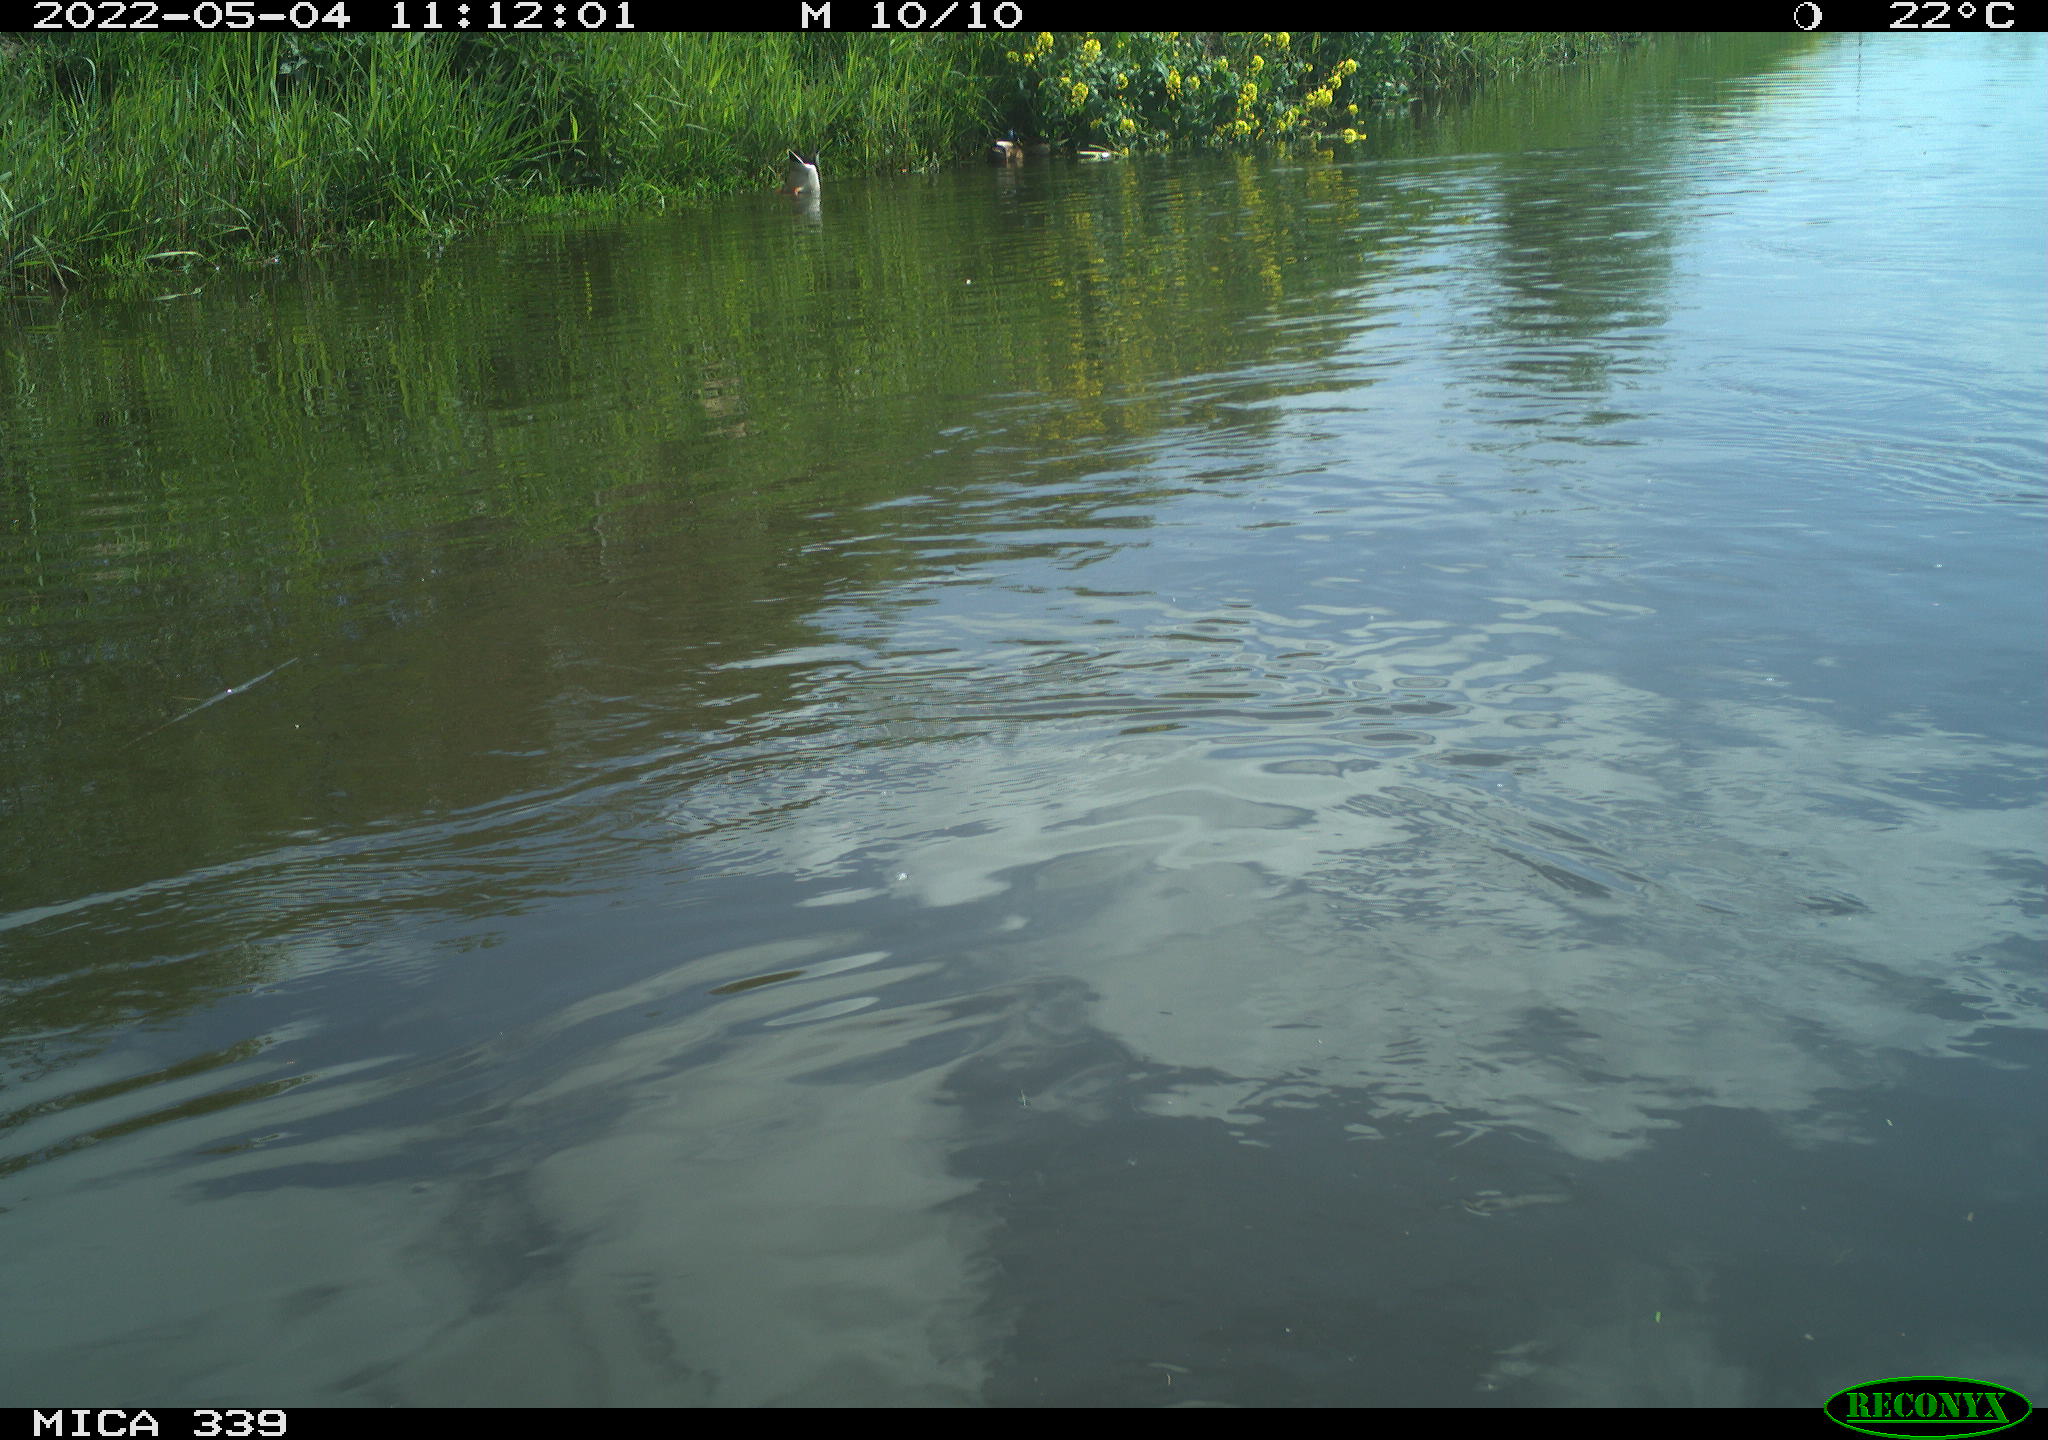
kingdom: Animalia
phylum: Chordata
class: Aves
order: Gruiformes
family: Rallidae
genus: Fulica
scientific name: Fulica atra
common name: Eurasian coot
